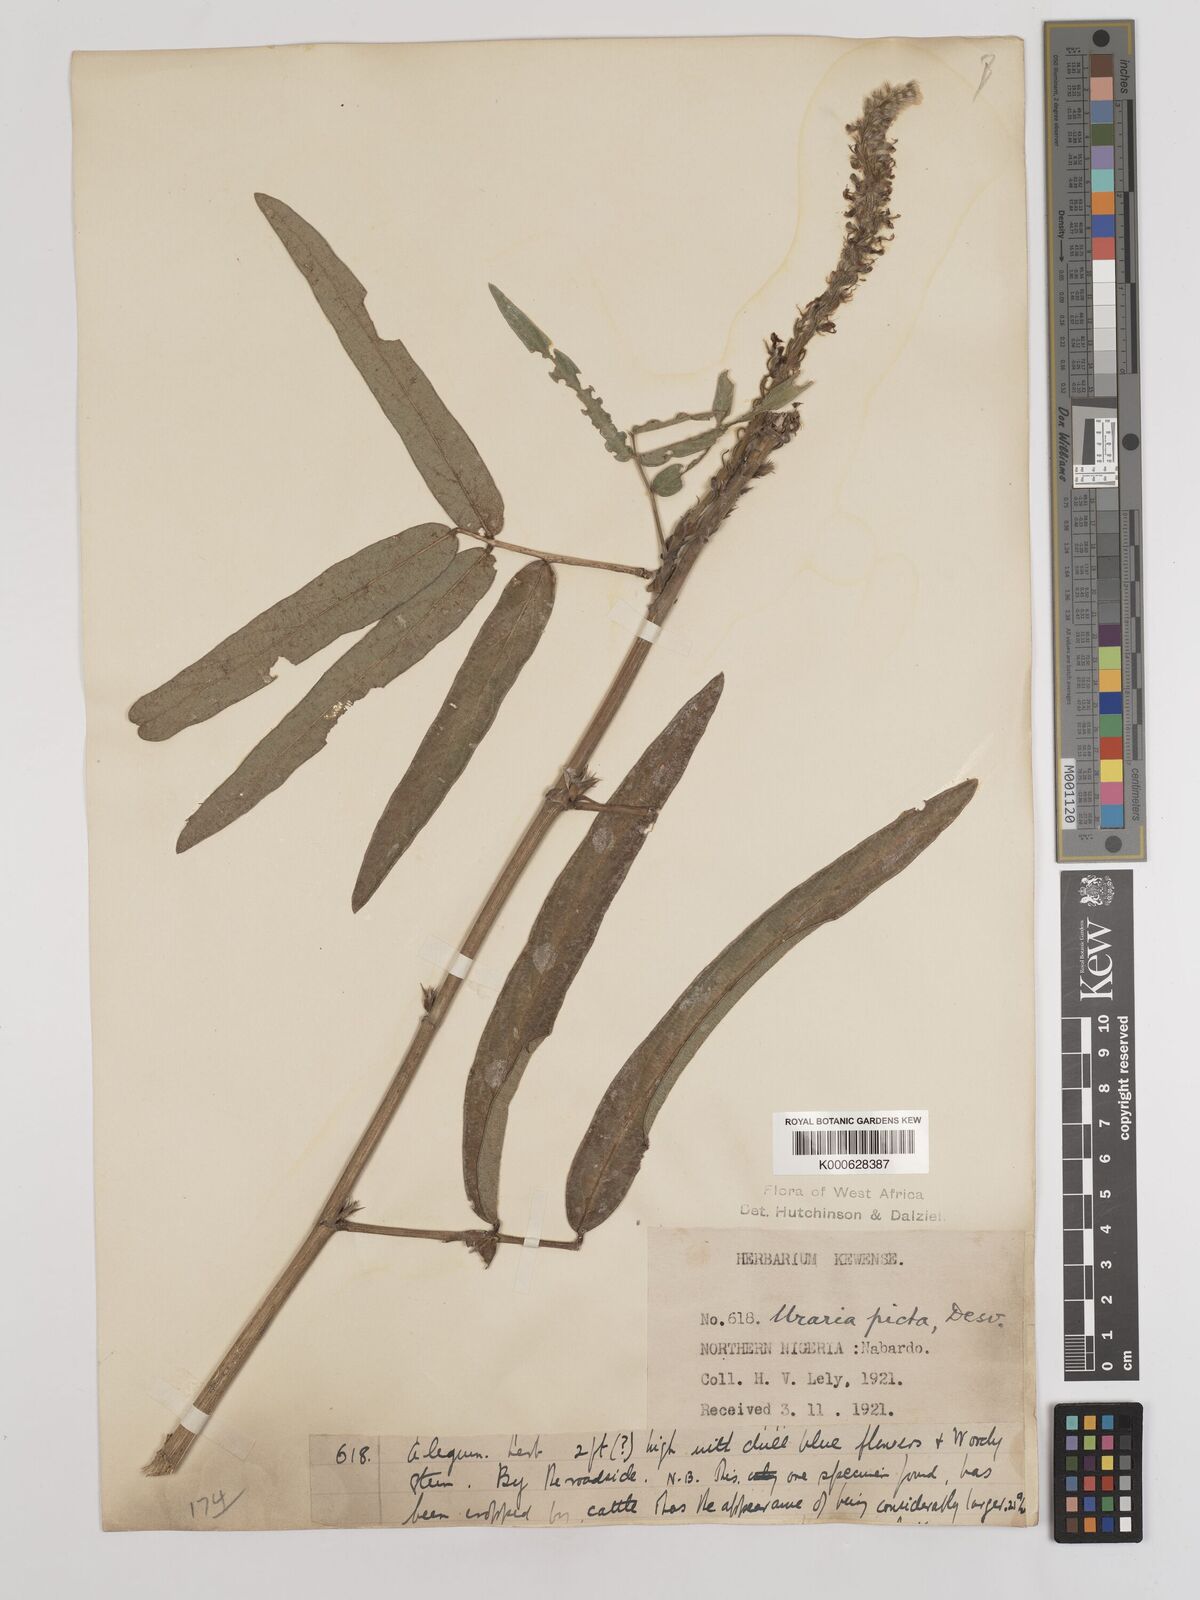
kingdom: Plantae
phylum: Tracheophyta
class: Magnoliopsida
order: Fabales
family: Fabaceae
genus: Uraria
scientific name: Uraria picta
